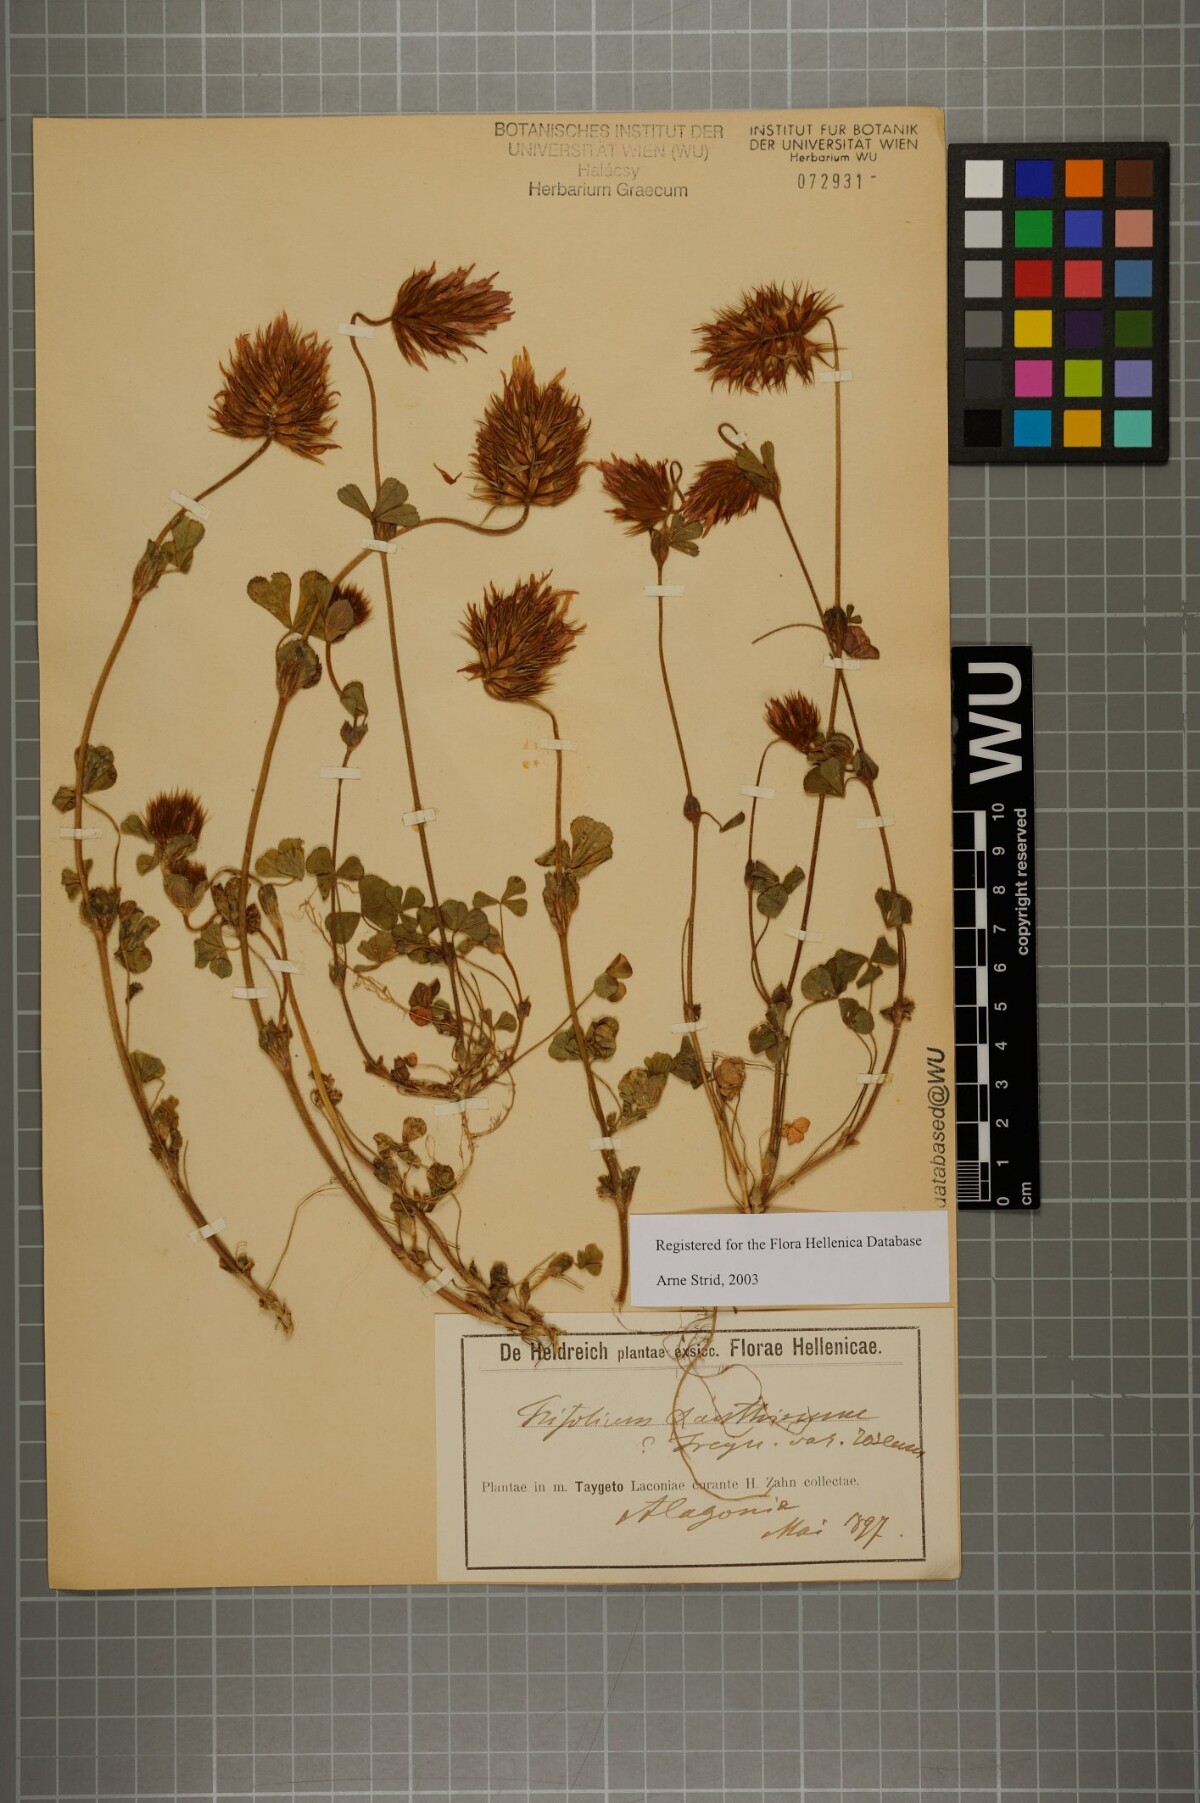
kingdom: Plantae
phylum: Tracheophyta
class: Magnoliopsida
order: Fabales
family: Fabaceae
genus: Trifolium
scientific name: Trifolium xanthinum
